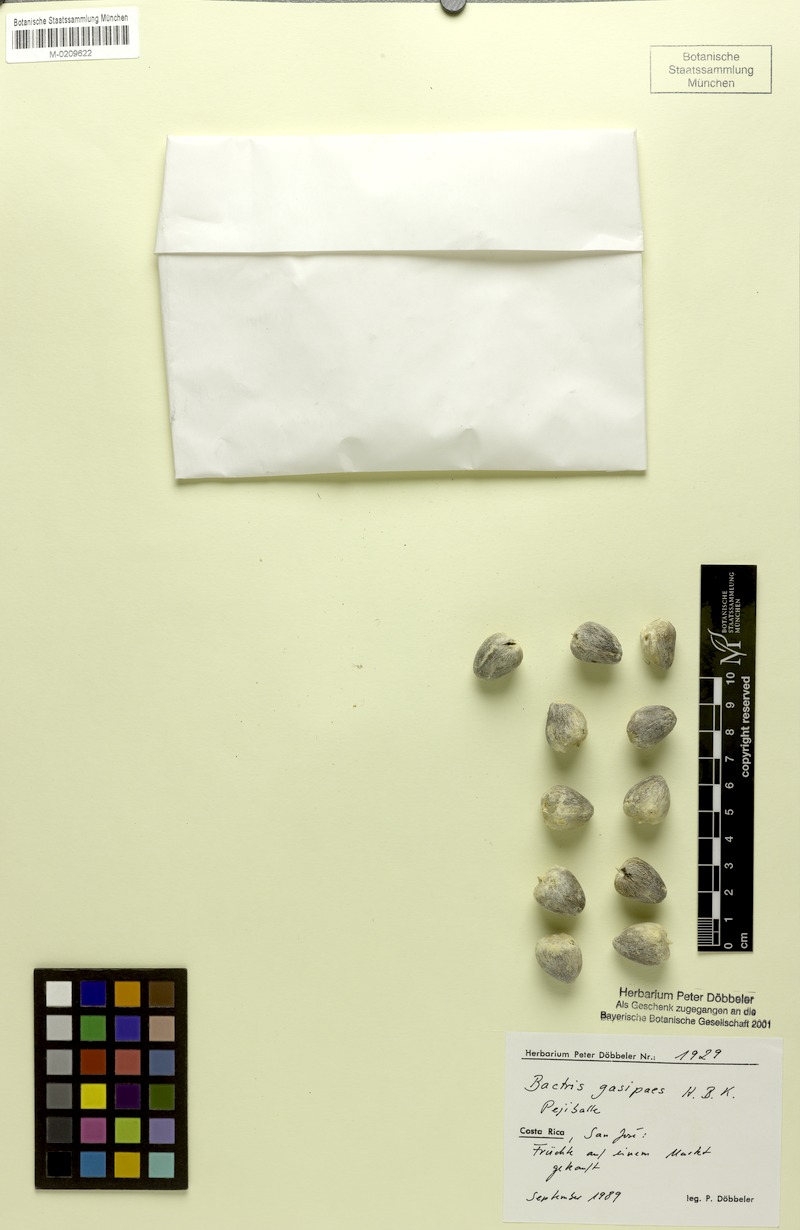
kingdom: Plantae
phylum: Tracheophyta
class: Liliopsida
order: Arecales
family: Arecaceae
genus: Bactris
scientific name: Bactris gasipaes
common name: Peach palm
